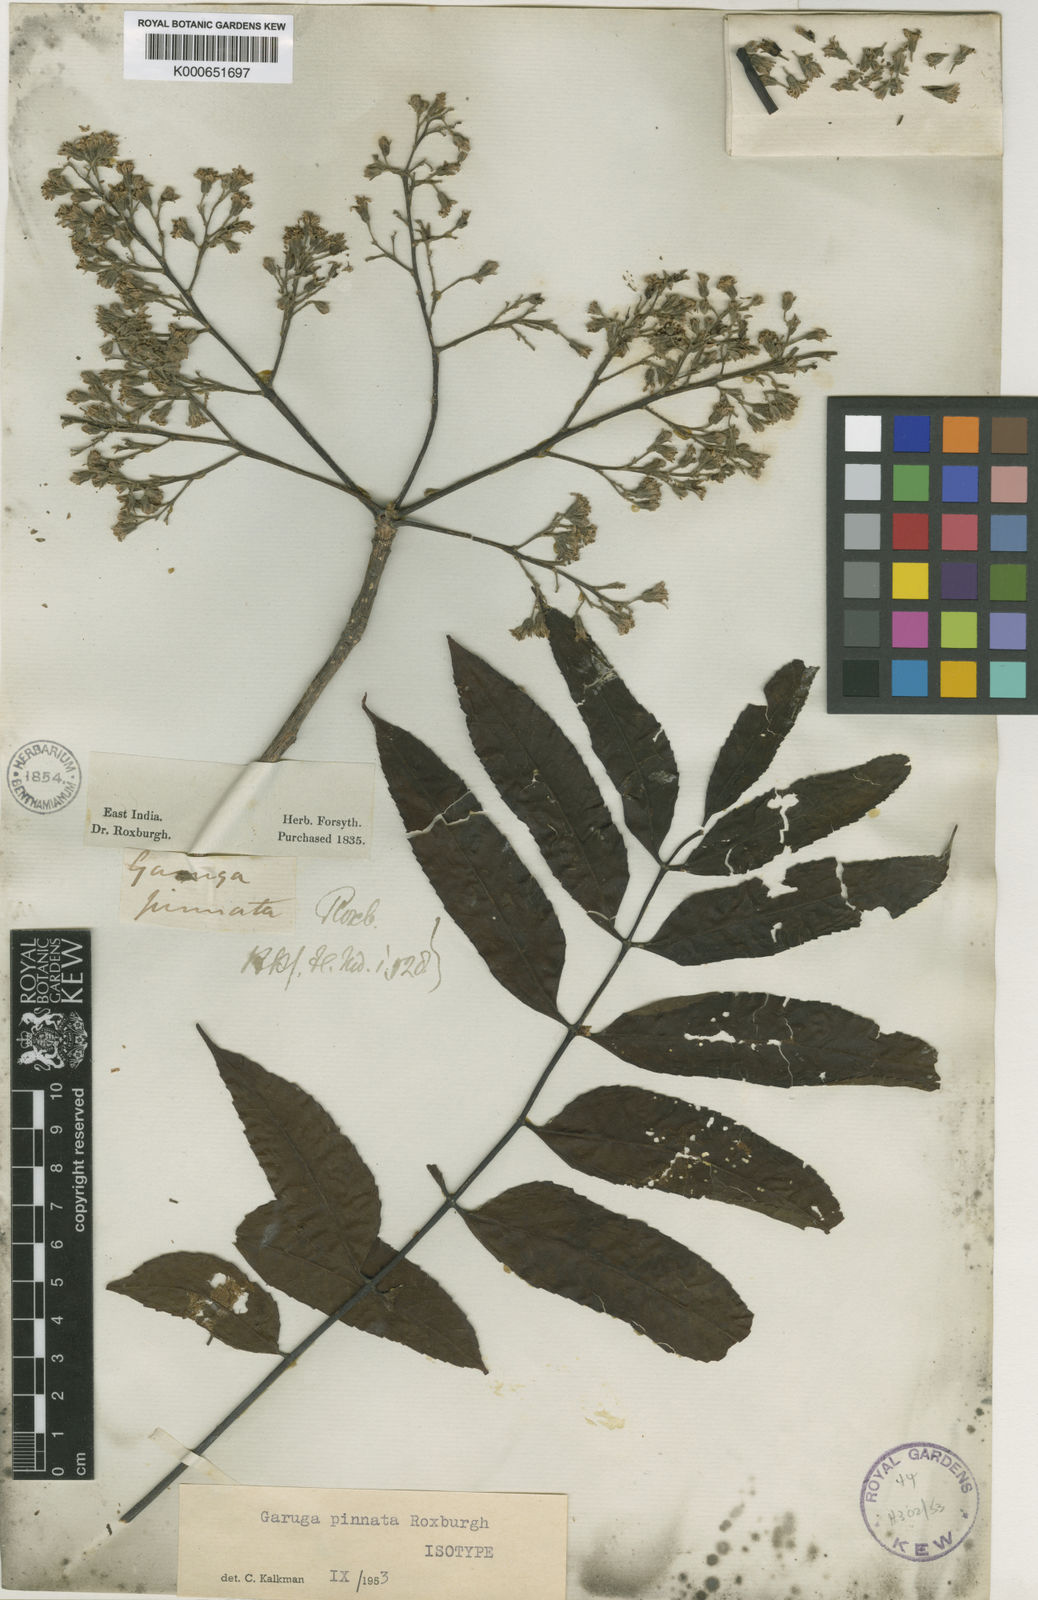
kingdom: Plantae
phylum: Tracheophyta
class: Magnoliopsida
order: Sapindales
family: Burseraceae
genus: Garuga
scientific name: Garuga pinnata
